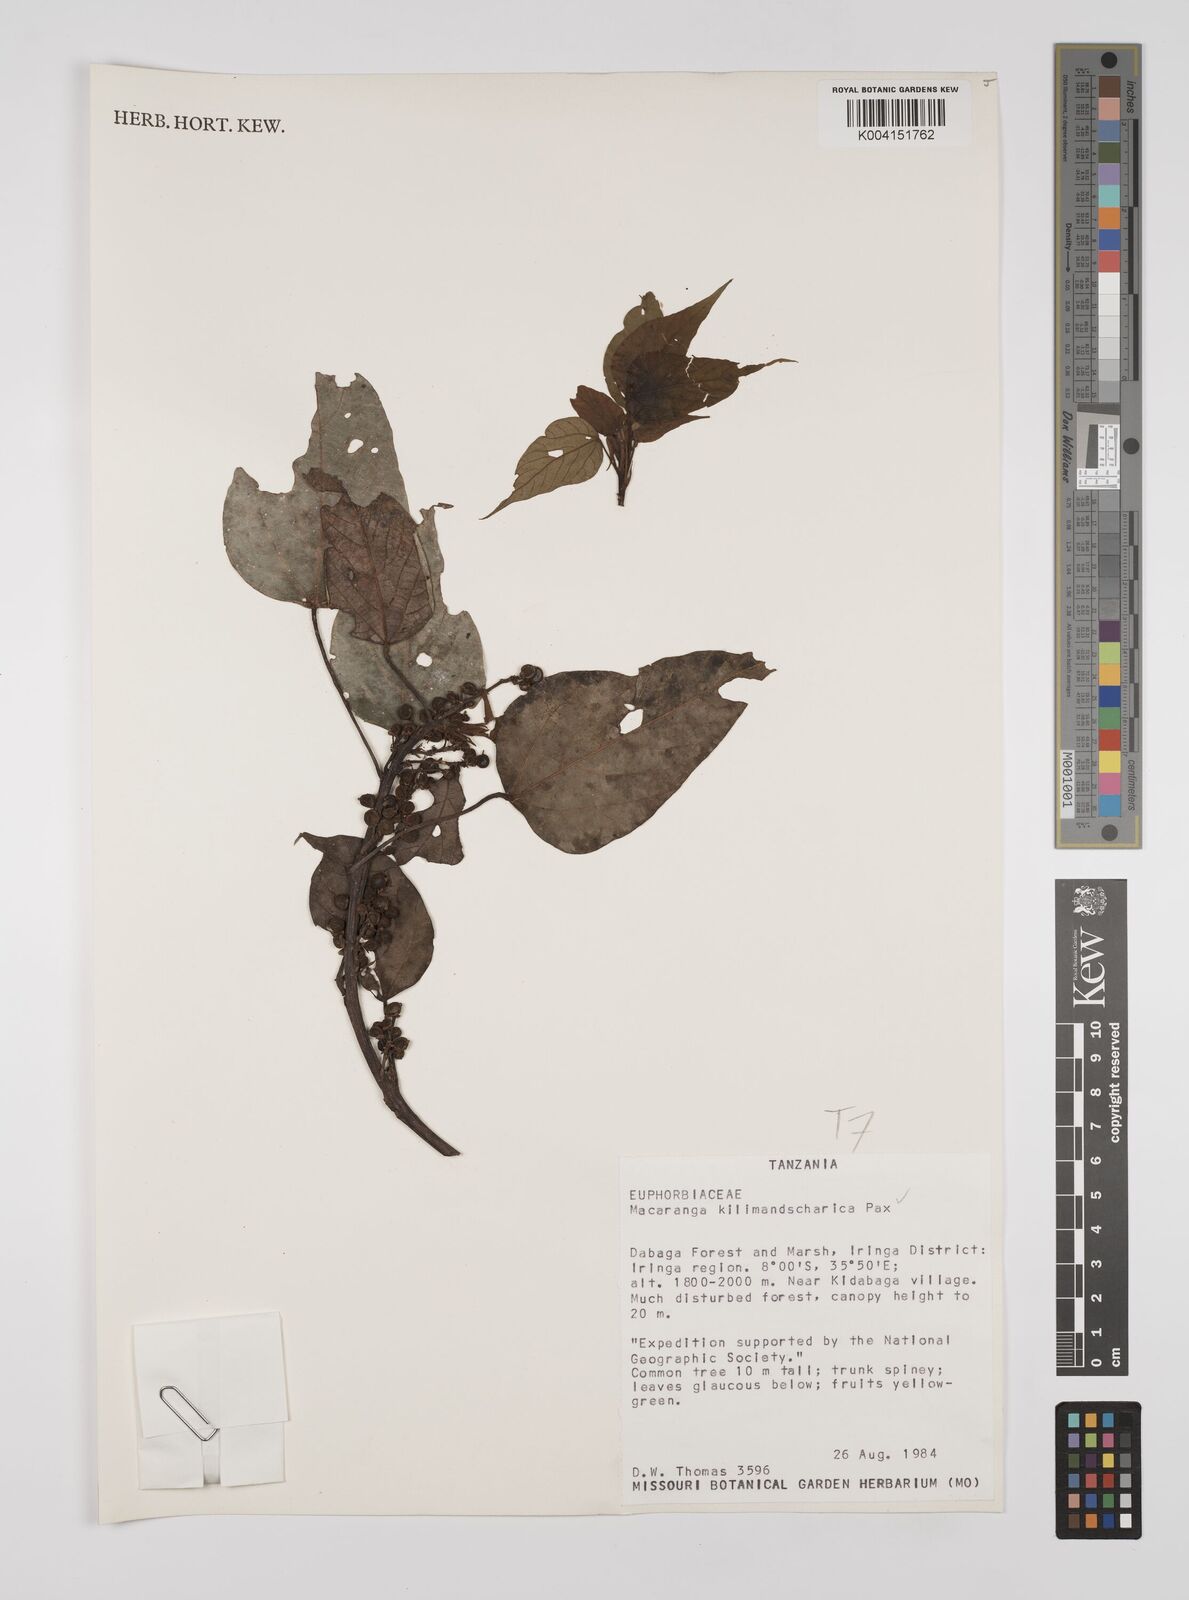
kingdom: Plantae
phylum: Tracheophyta
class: Magnoliopsida
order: Malpighiales
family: Euphorbiaceae
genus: Macaranga
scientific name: Macaranga kilimandscharica
